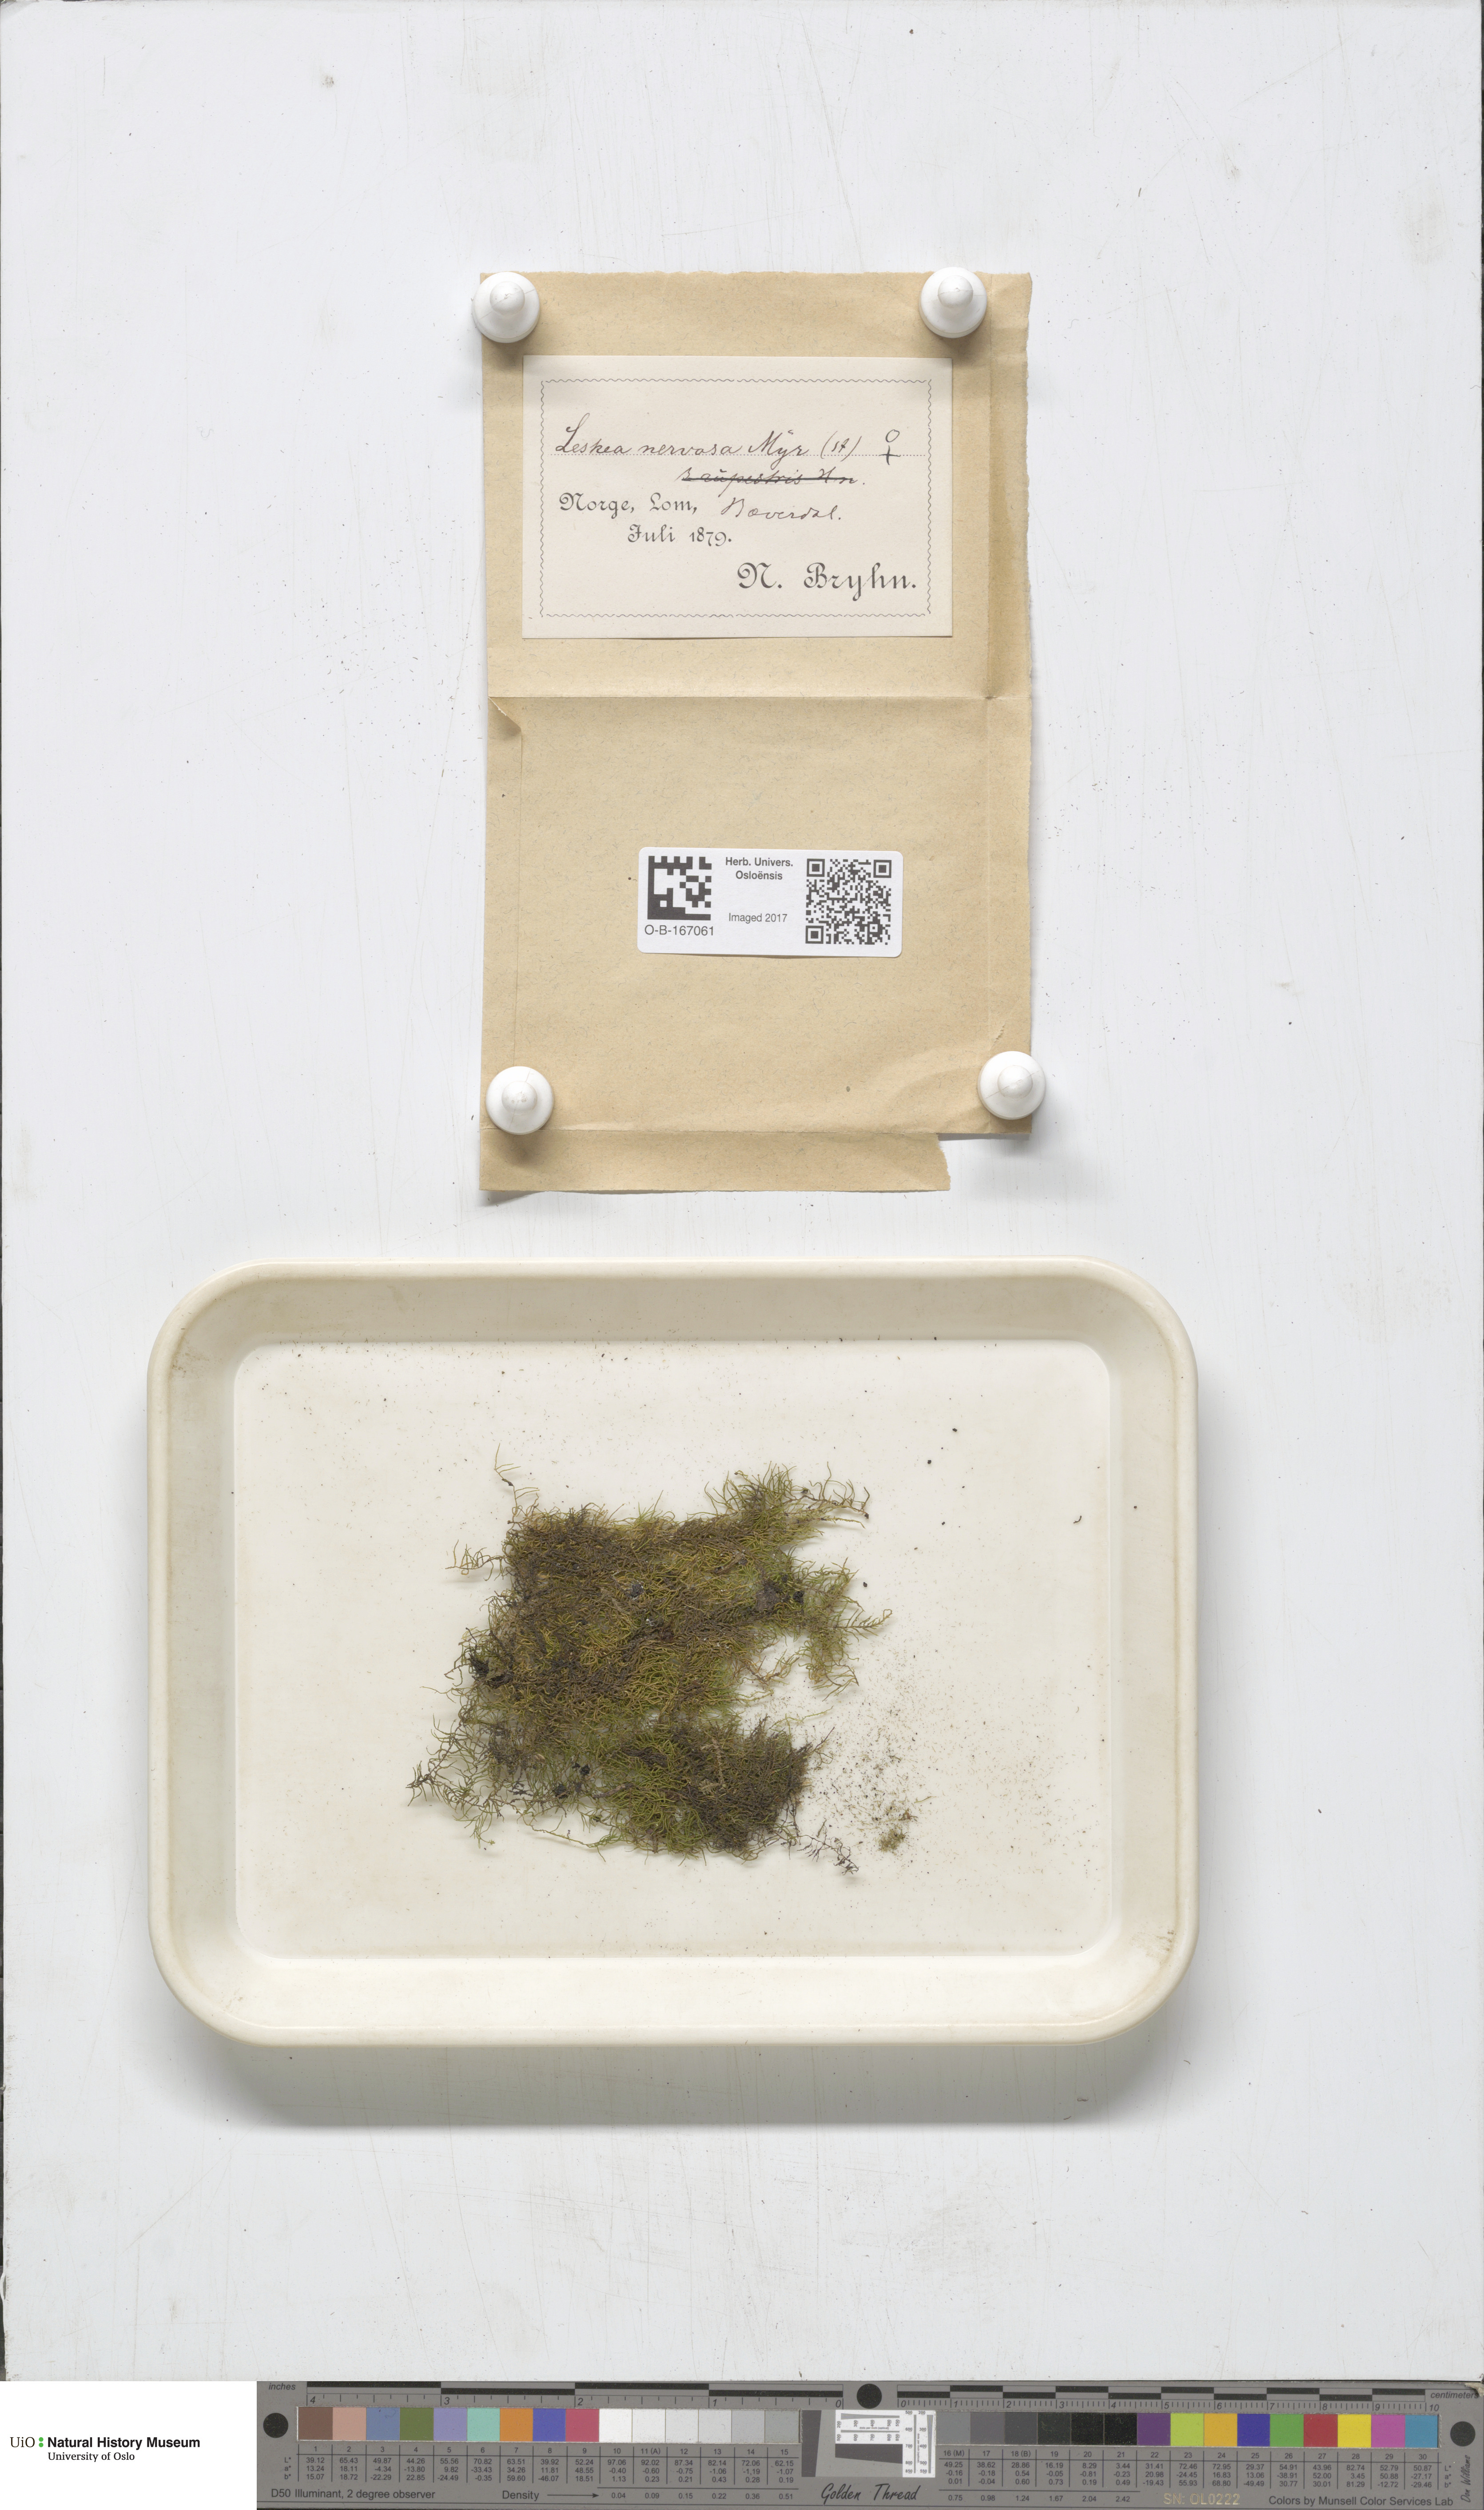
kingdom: Plantae
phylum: Bryophyta
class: Bryopsida
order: Hypnales
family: Pseudoleskeellaceae
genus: Pseudoleskeella
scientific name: Pseudoleskeella nervosa
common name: Nerved leske's moss
